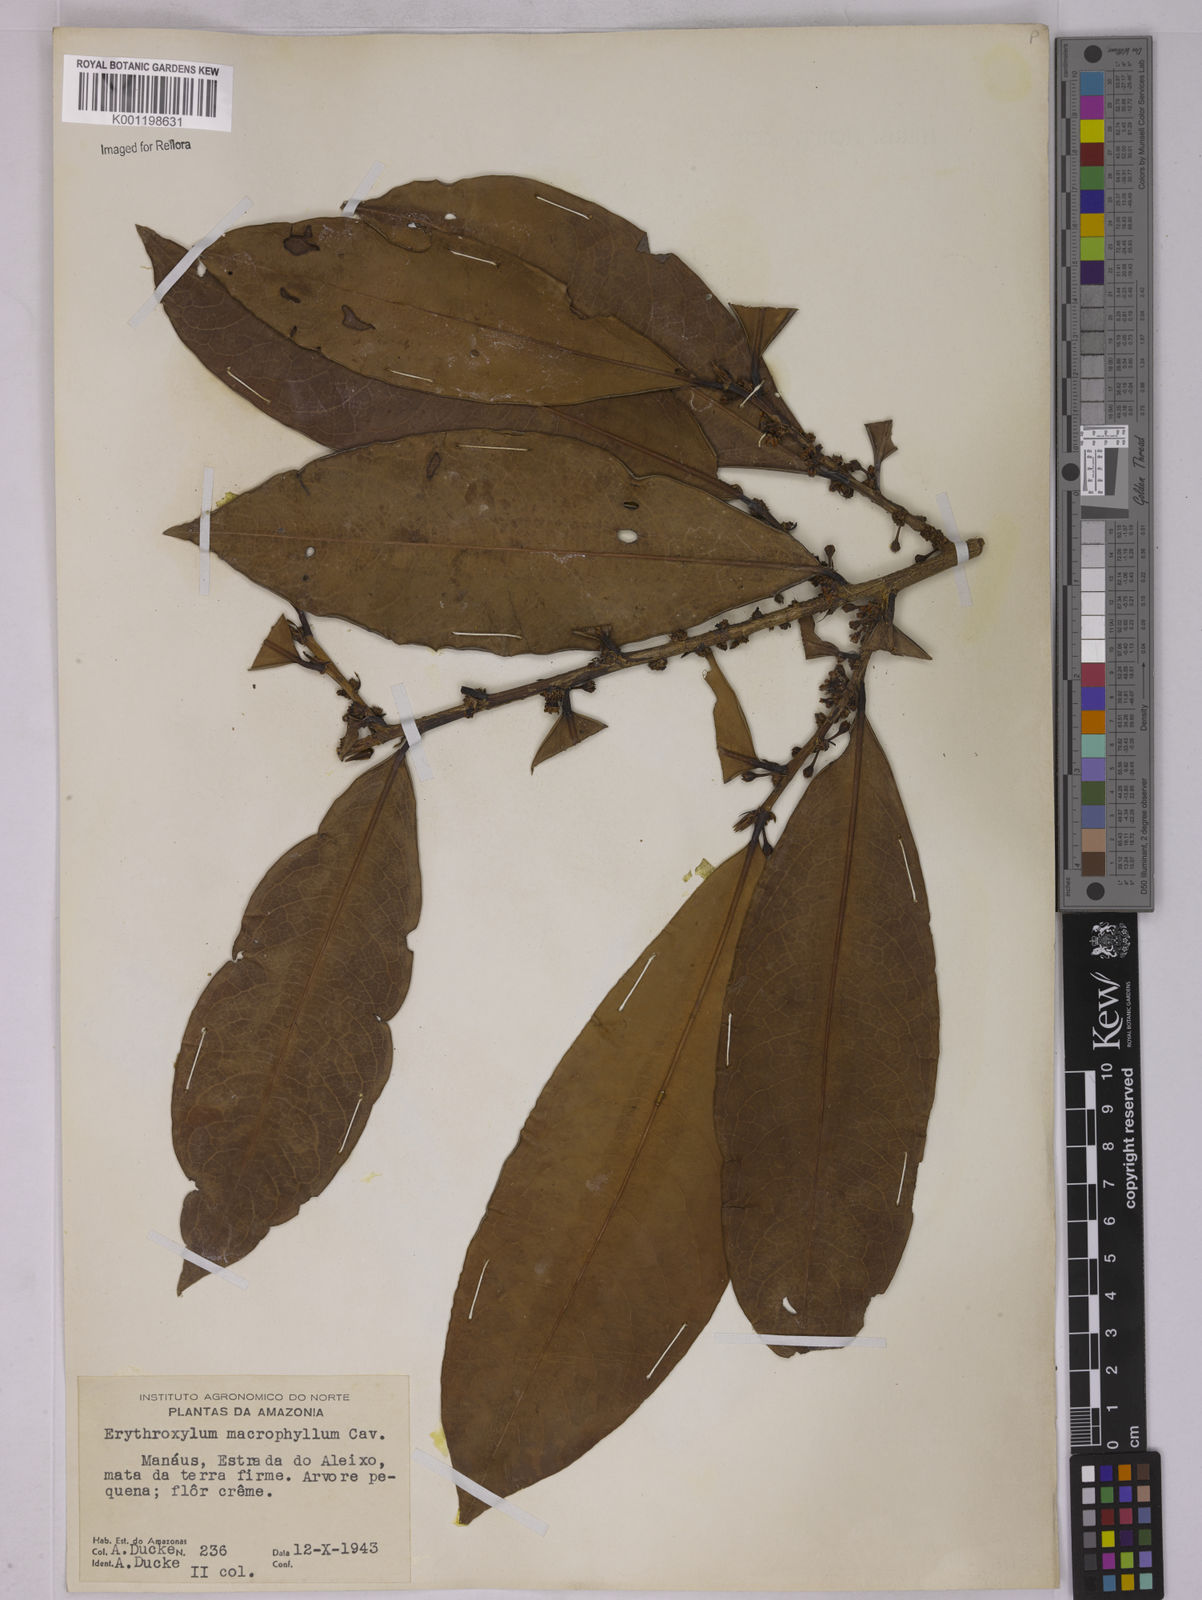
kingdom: Plantae
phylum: Tracheophyta
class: Magnoliopsida
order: Malpighiales
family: Erythroxylaceae
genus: Erythroxylum
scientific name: Erythroxylum macrophyllum
